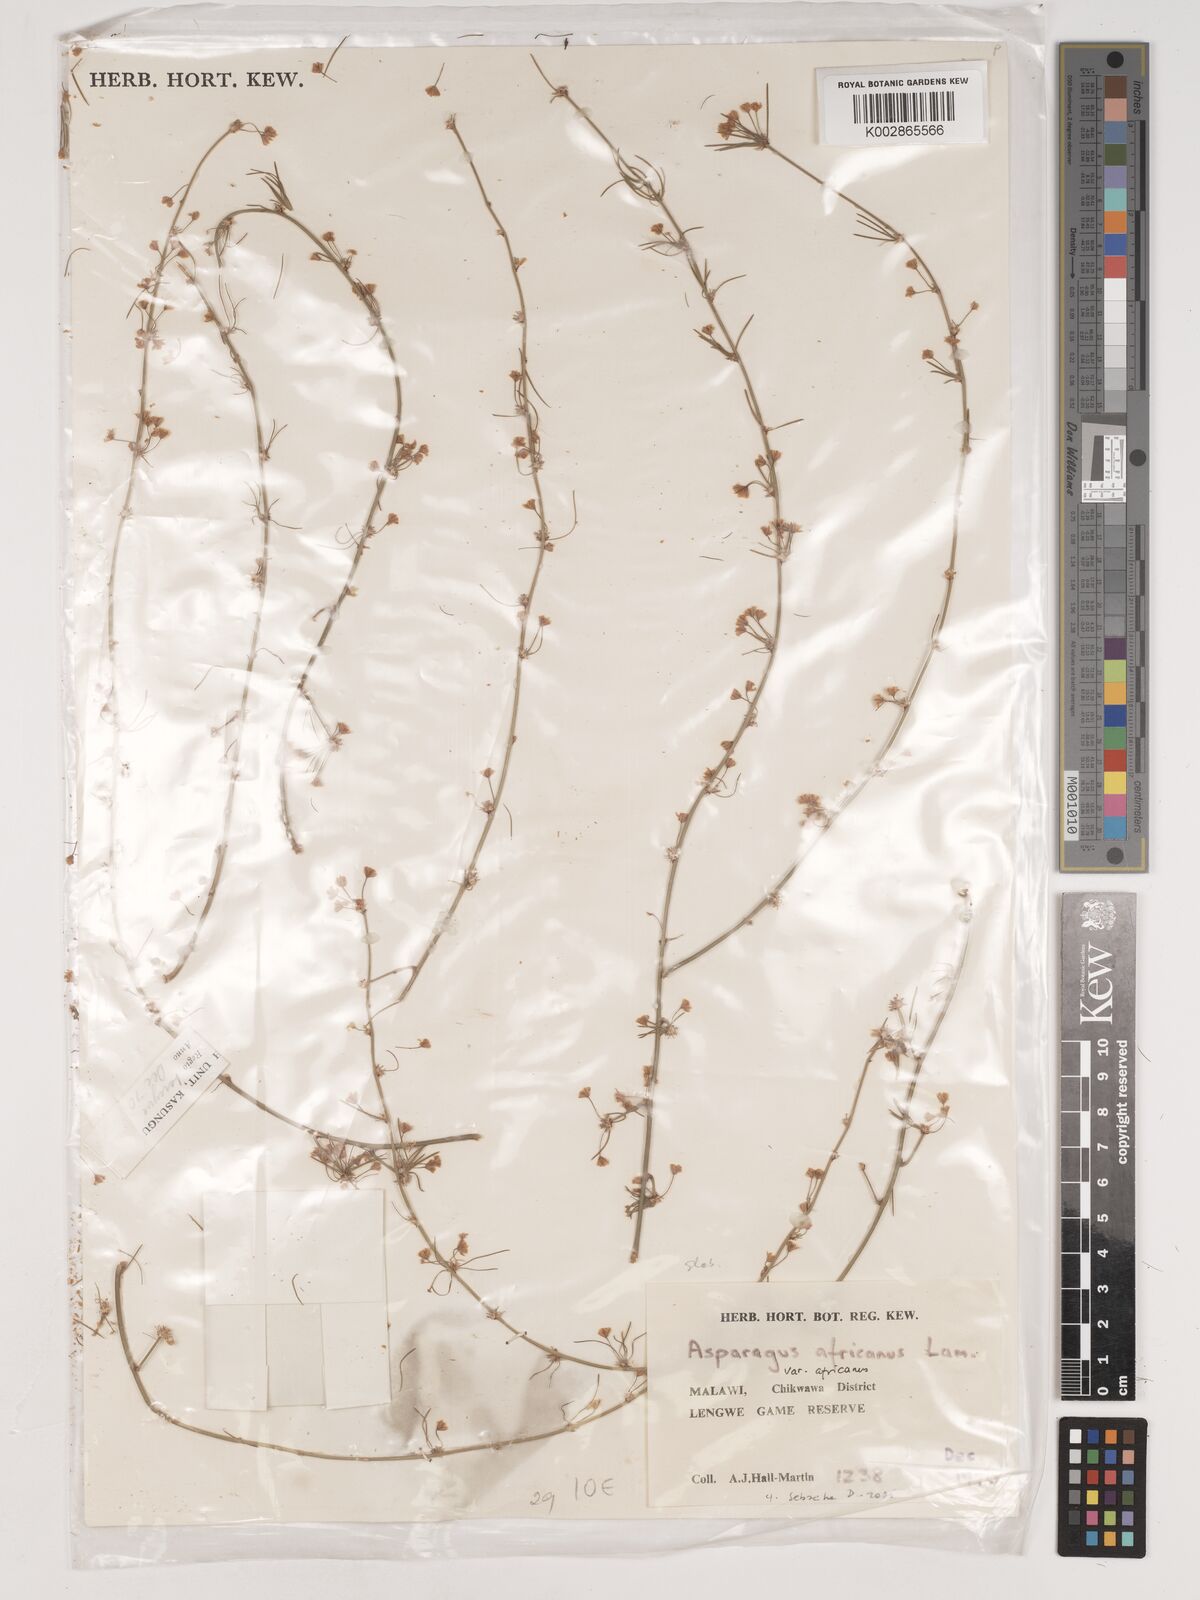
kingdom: Plantae
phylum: Tracheophyta
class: Liliopsida
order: Asparagales
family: Asparagaceae
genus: Asparagus
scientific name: Asparagus africanus
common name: Asparagus-fern
